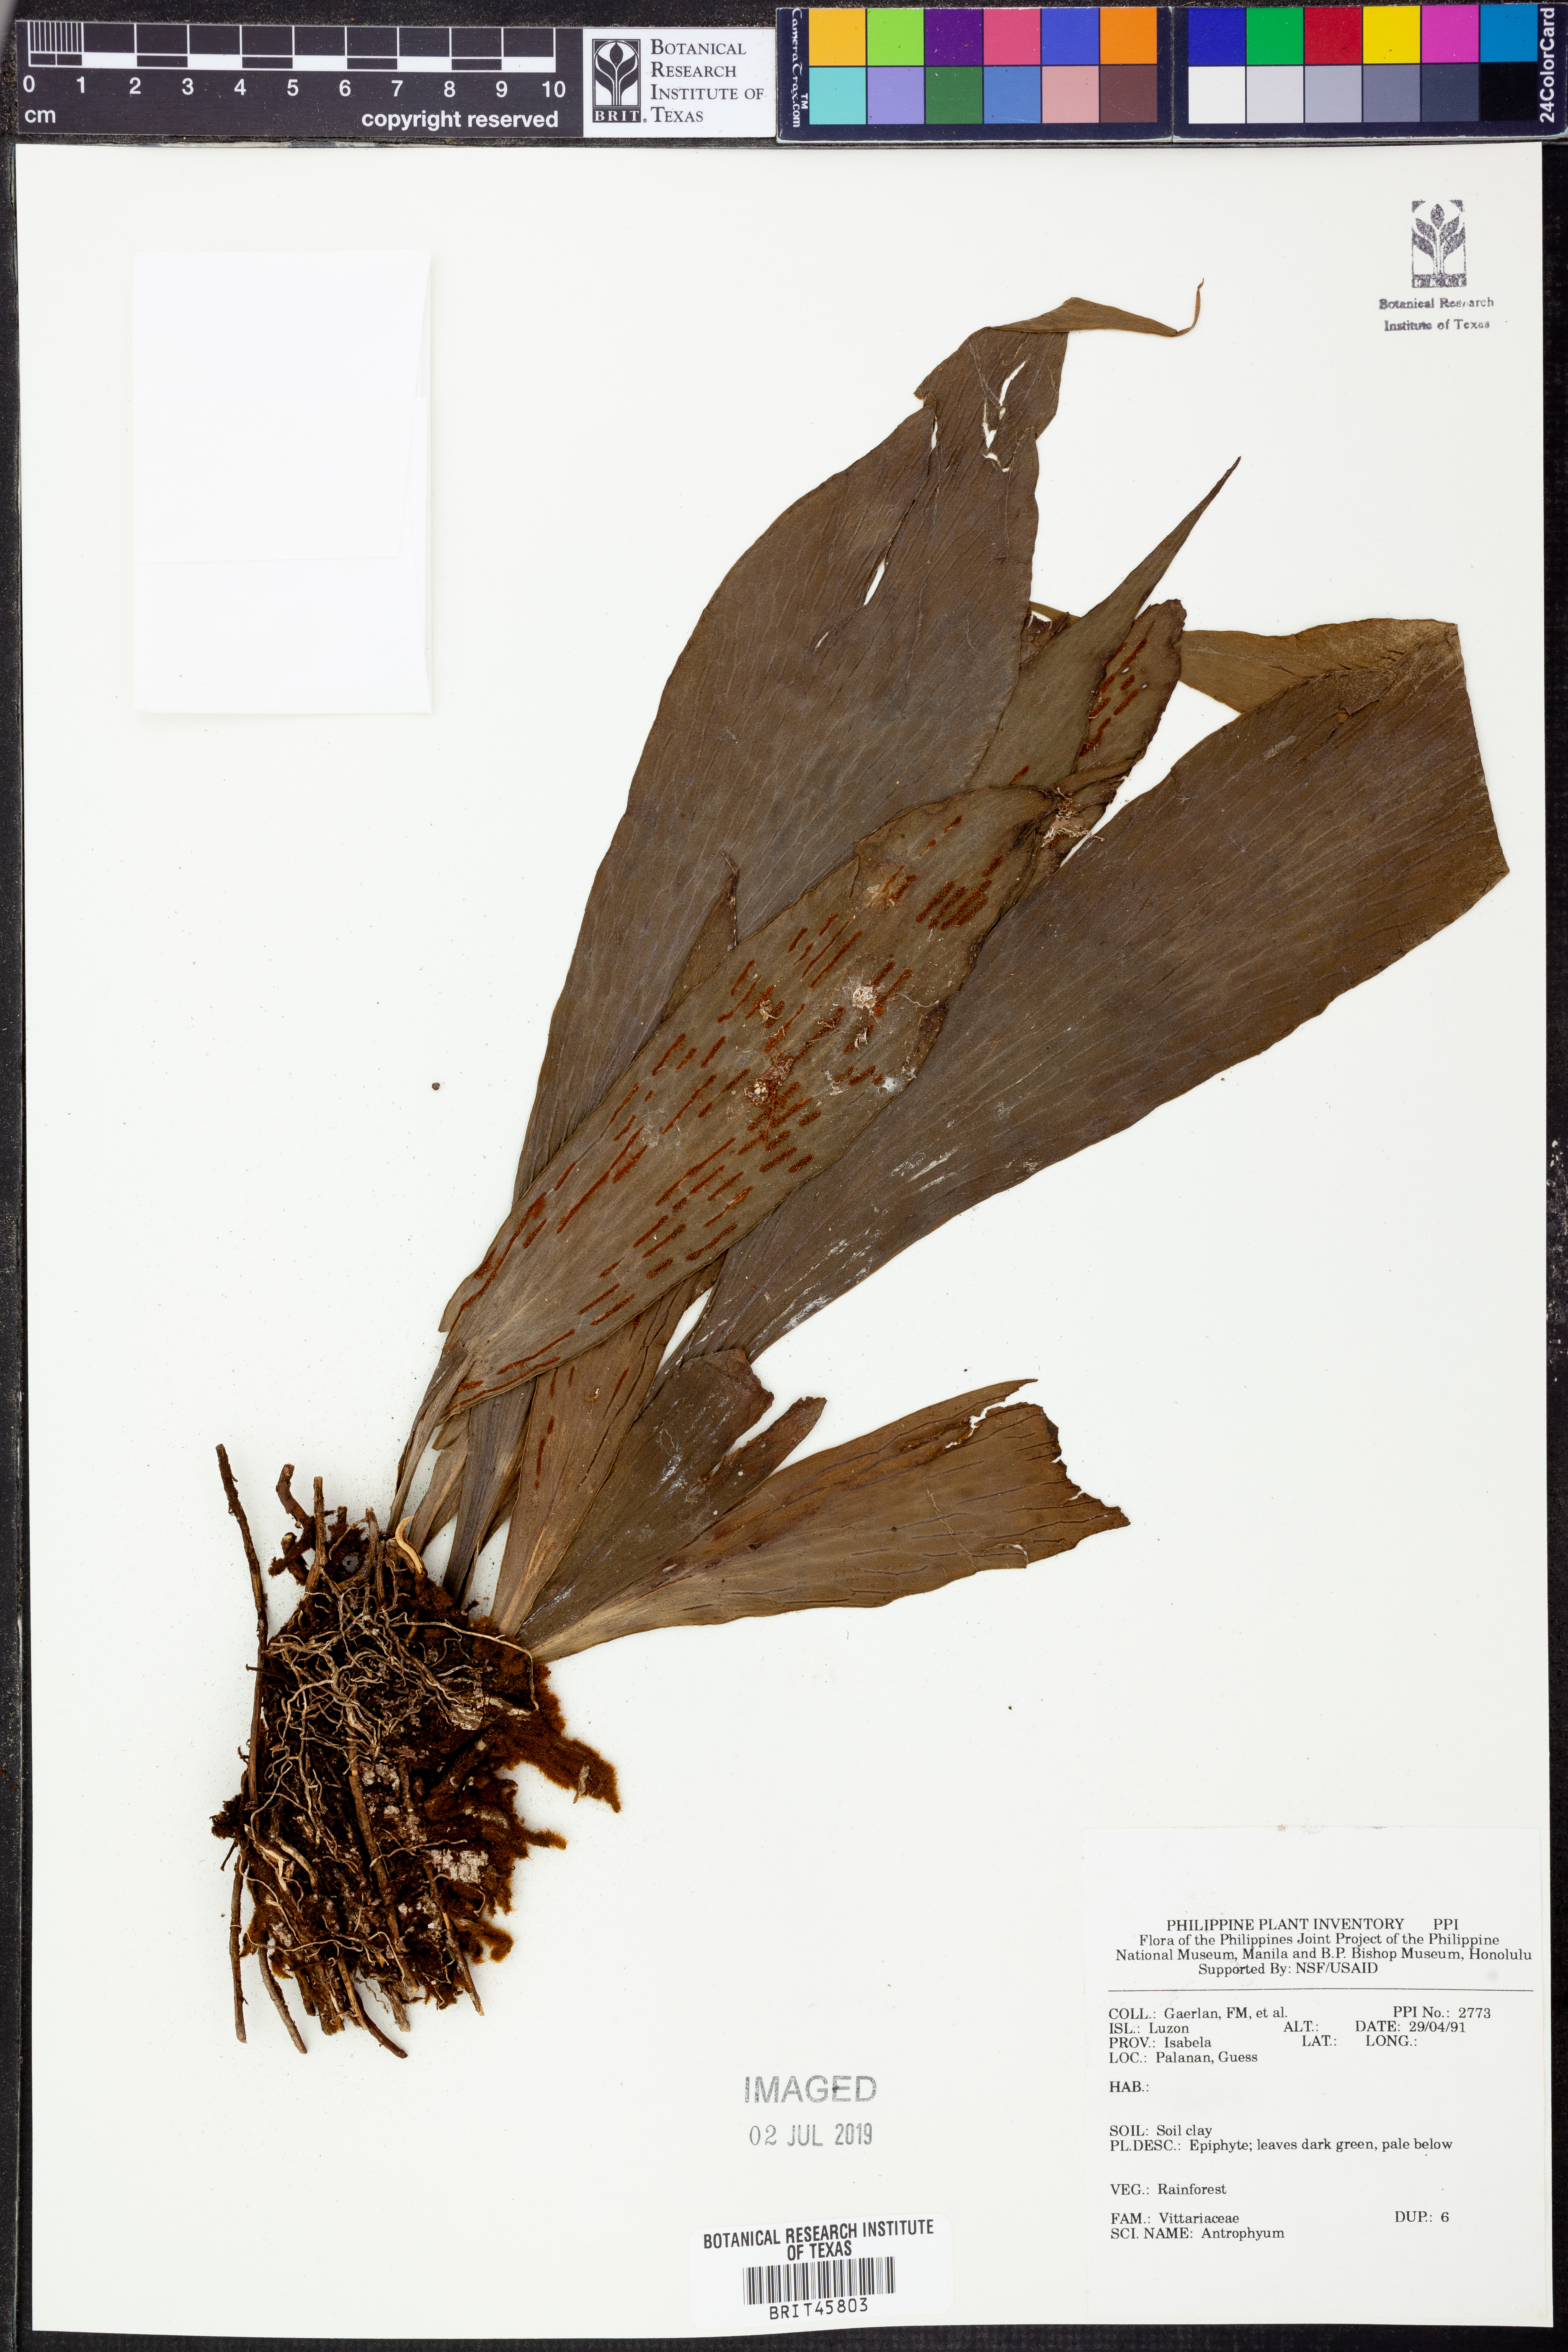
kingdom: Plantae
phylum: Tracheophyta
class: Polypodiopsida
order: Polypodiales
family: Pteridaceae
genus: Antrophyum
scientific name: Antrophyum
